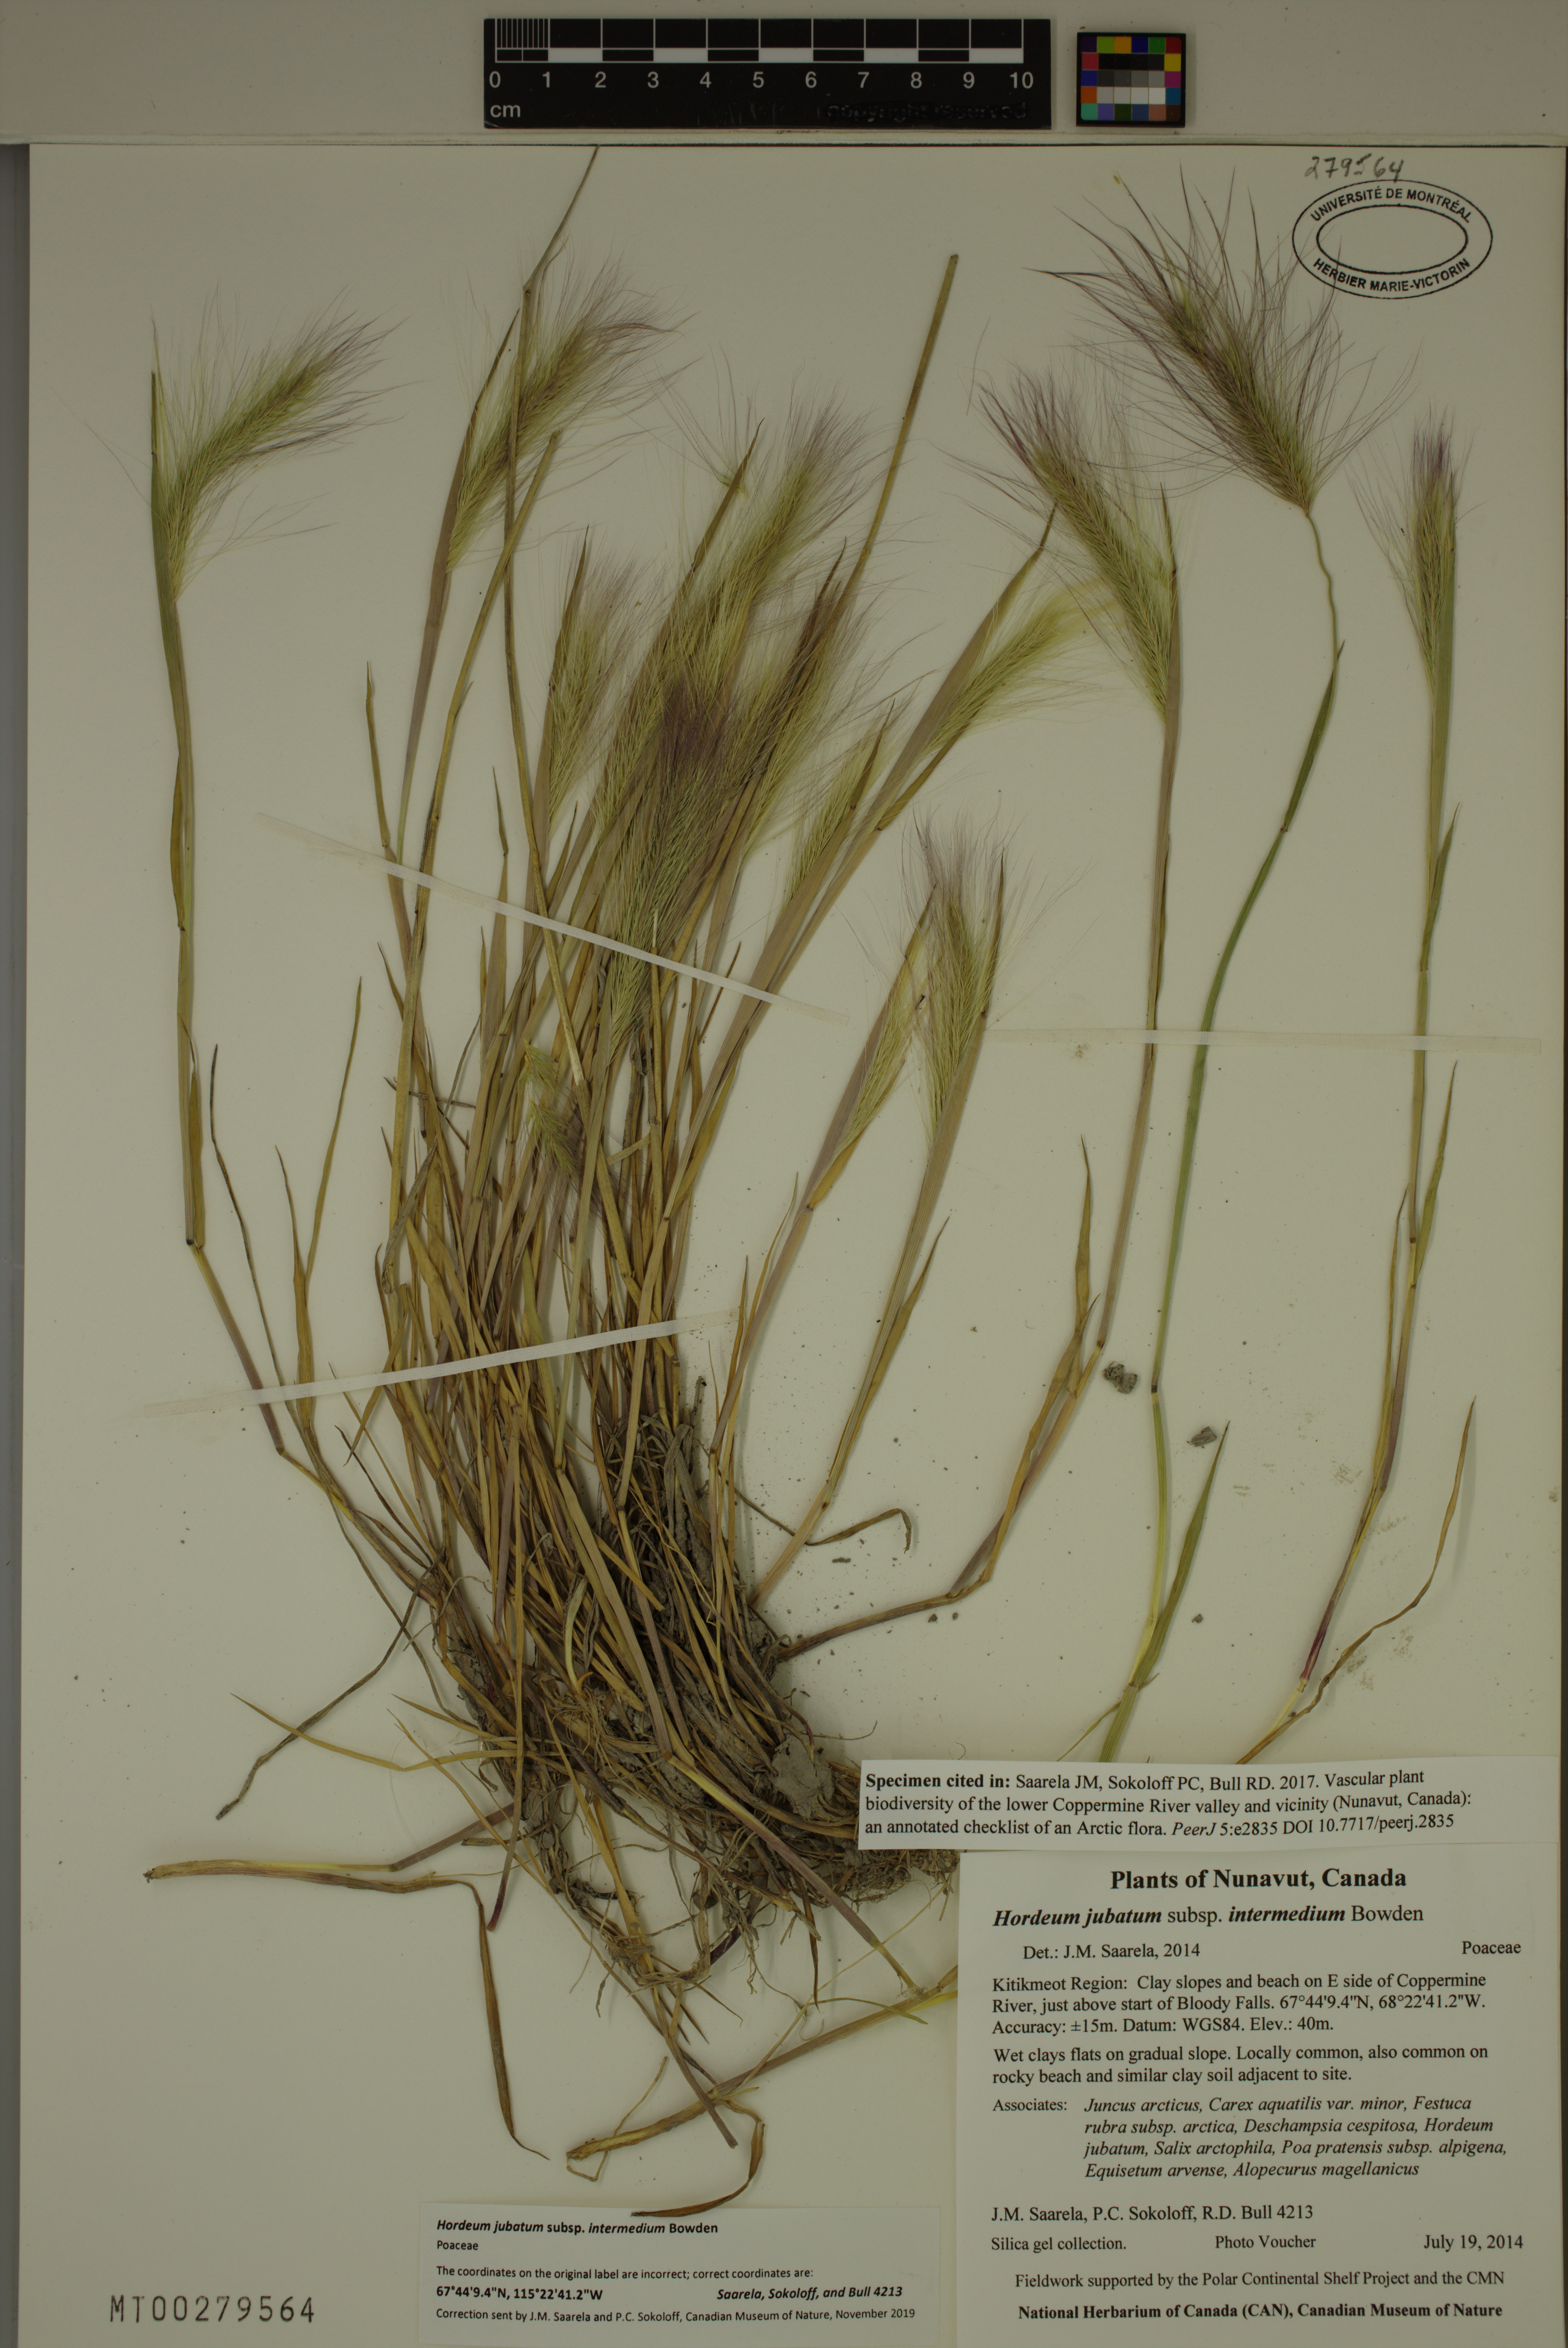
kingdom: Plantae
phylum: Tracheophyta
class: Liliopsida
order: Poales
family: Poaceae
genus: Hordeum
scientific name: Hordeum jubatum
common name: Foxtail barley
